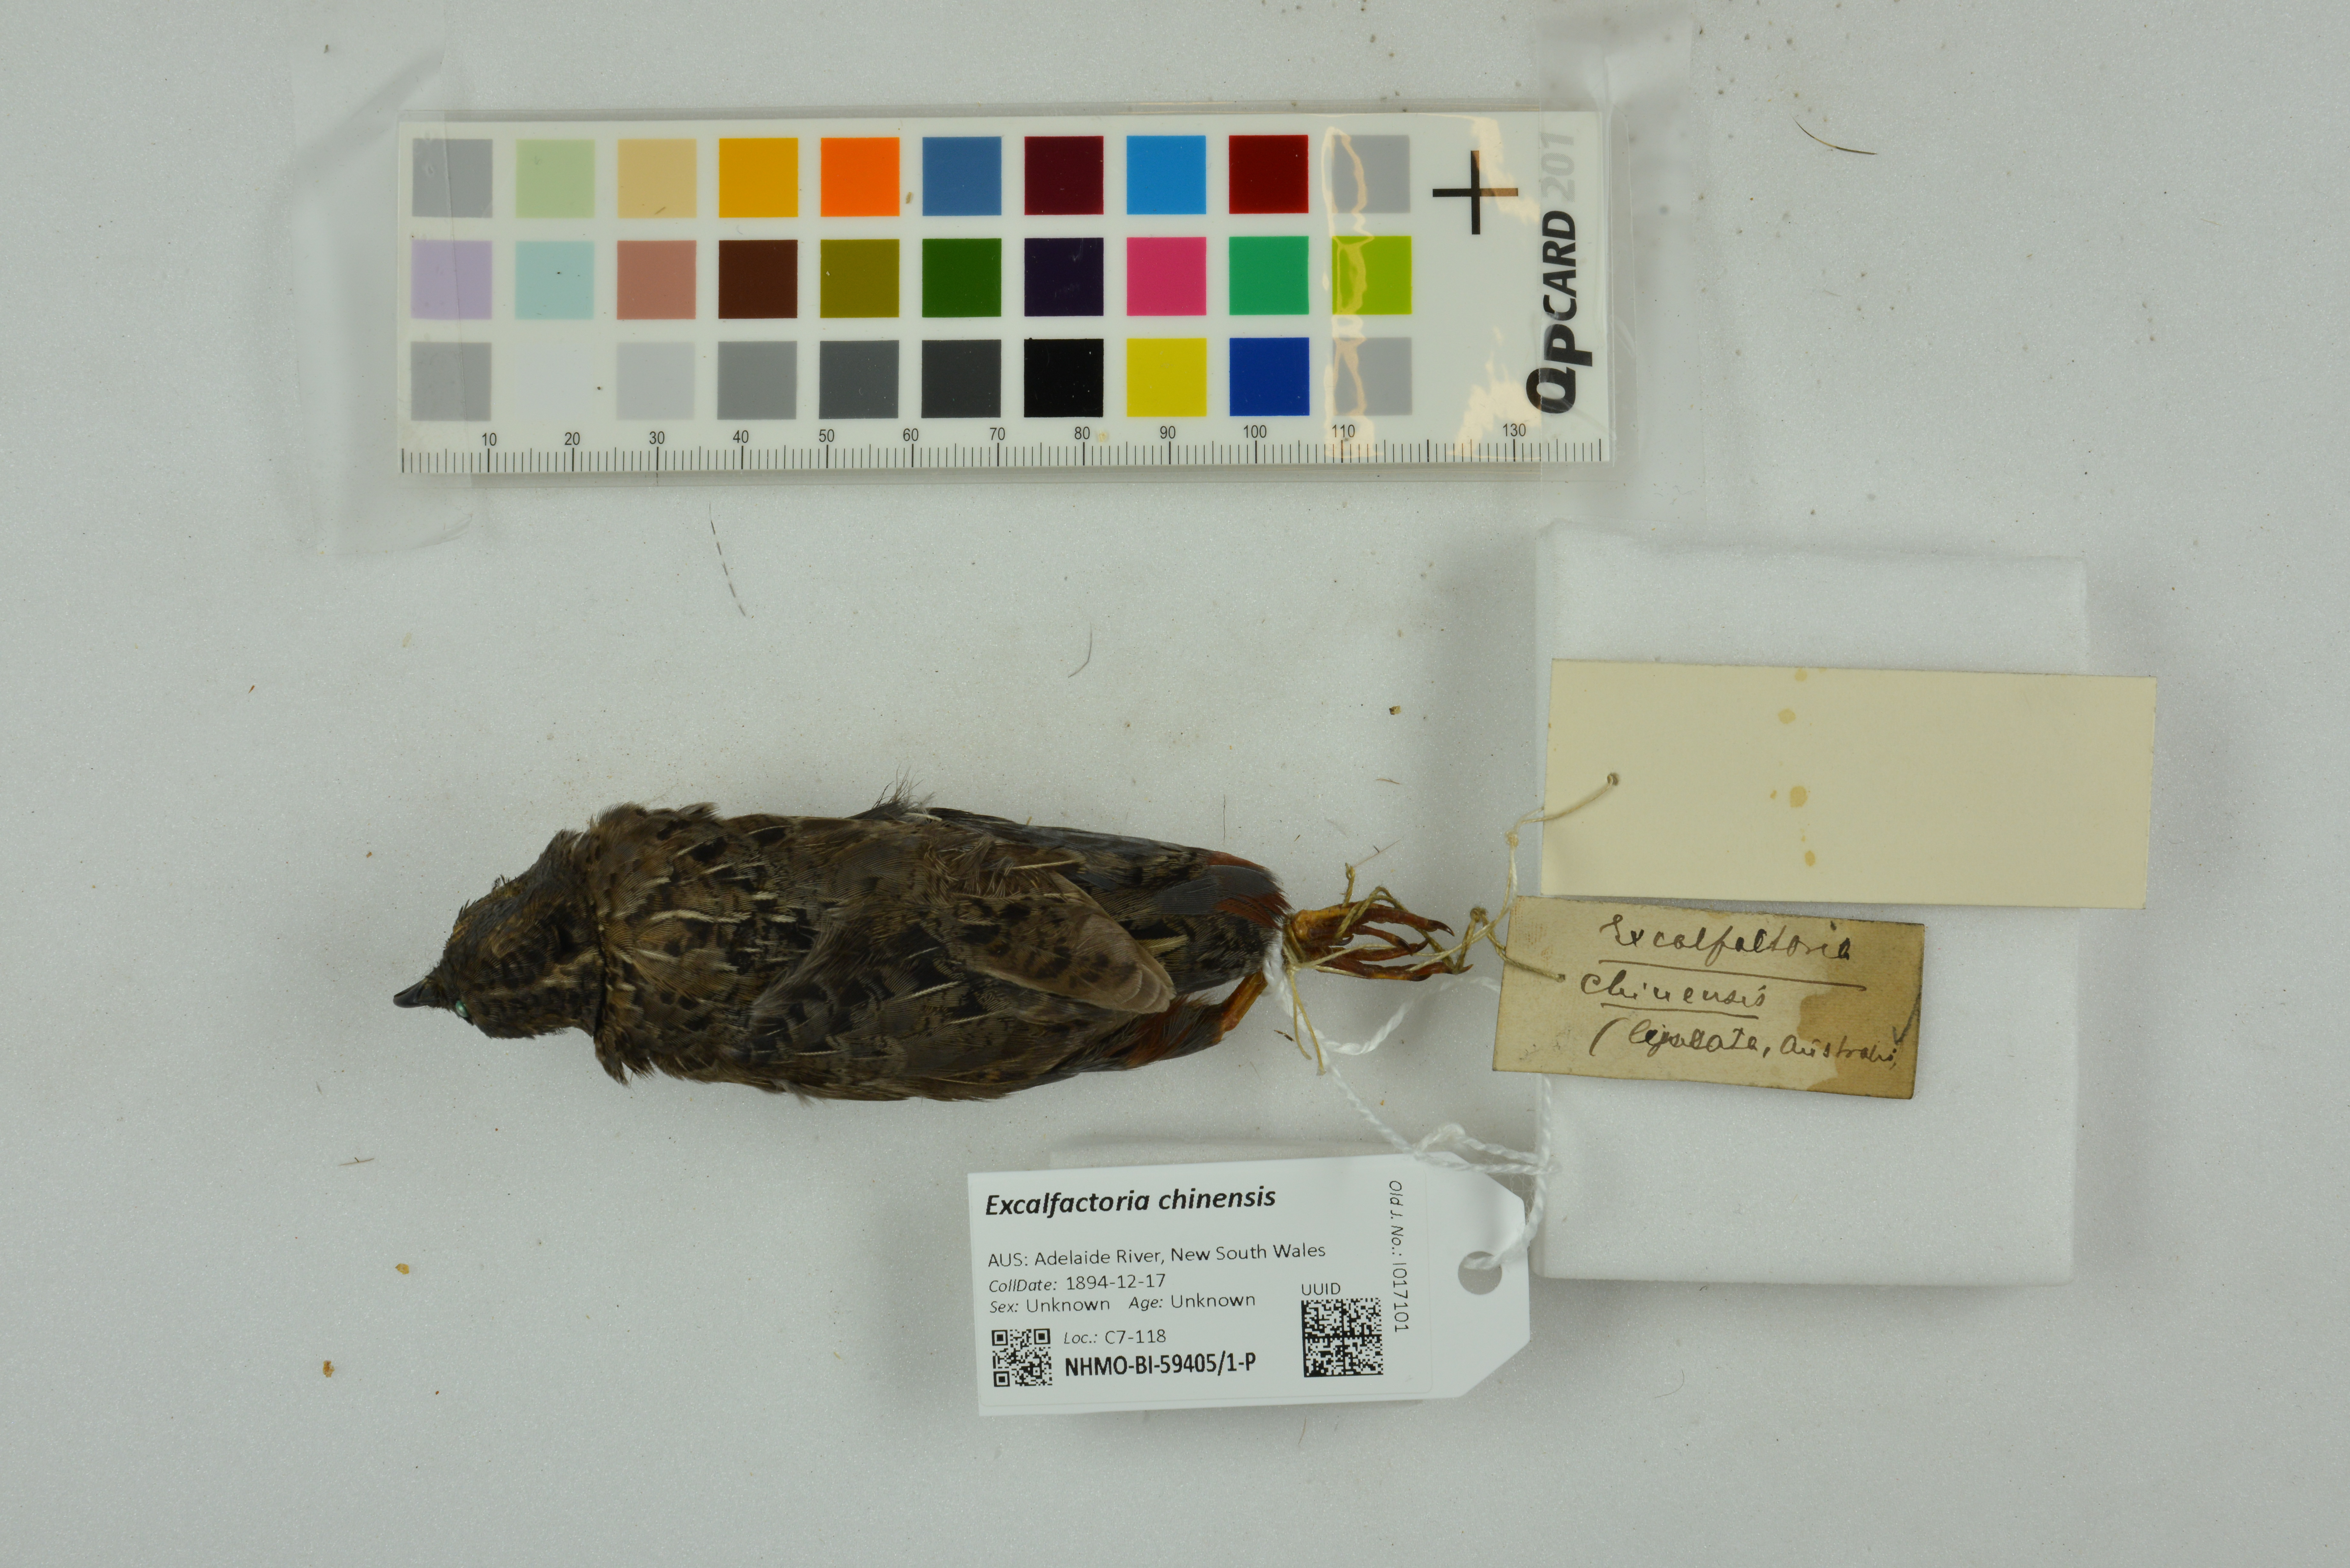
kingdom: Animalia
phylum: Chordata
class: Aves
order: Galliformes
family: Phasianidae
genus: Synoicus
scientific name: Synoicus chinensis
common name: Blue-breasted quail
